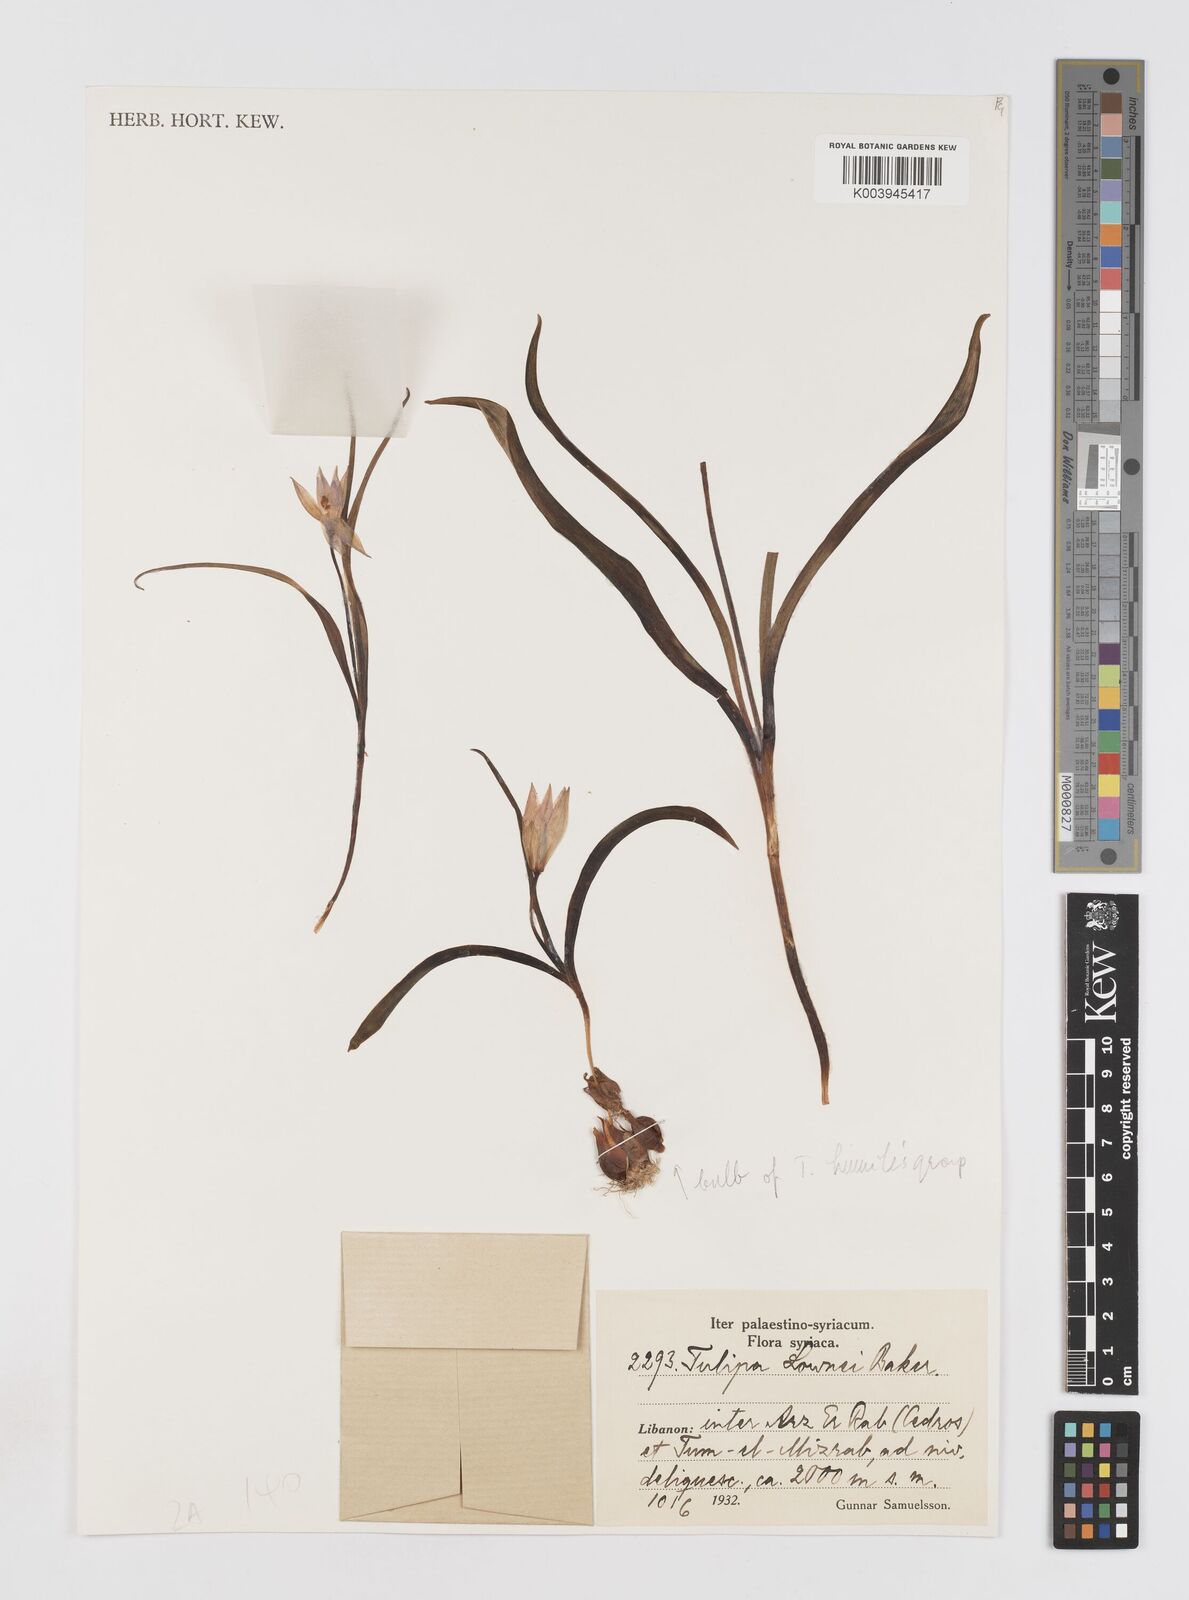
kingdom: Plantae
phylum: Tracheophyta
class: Liliopsida
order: Liliales
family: Liliaceae
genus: Tulipa
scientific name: Tulipa humilis
